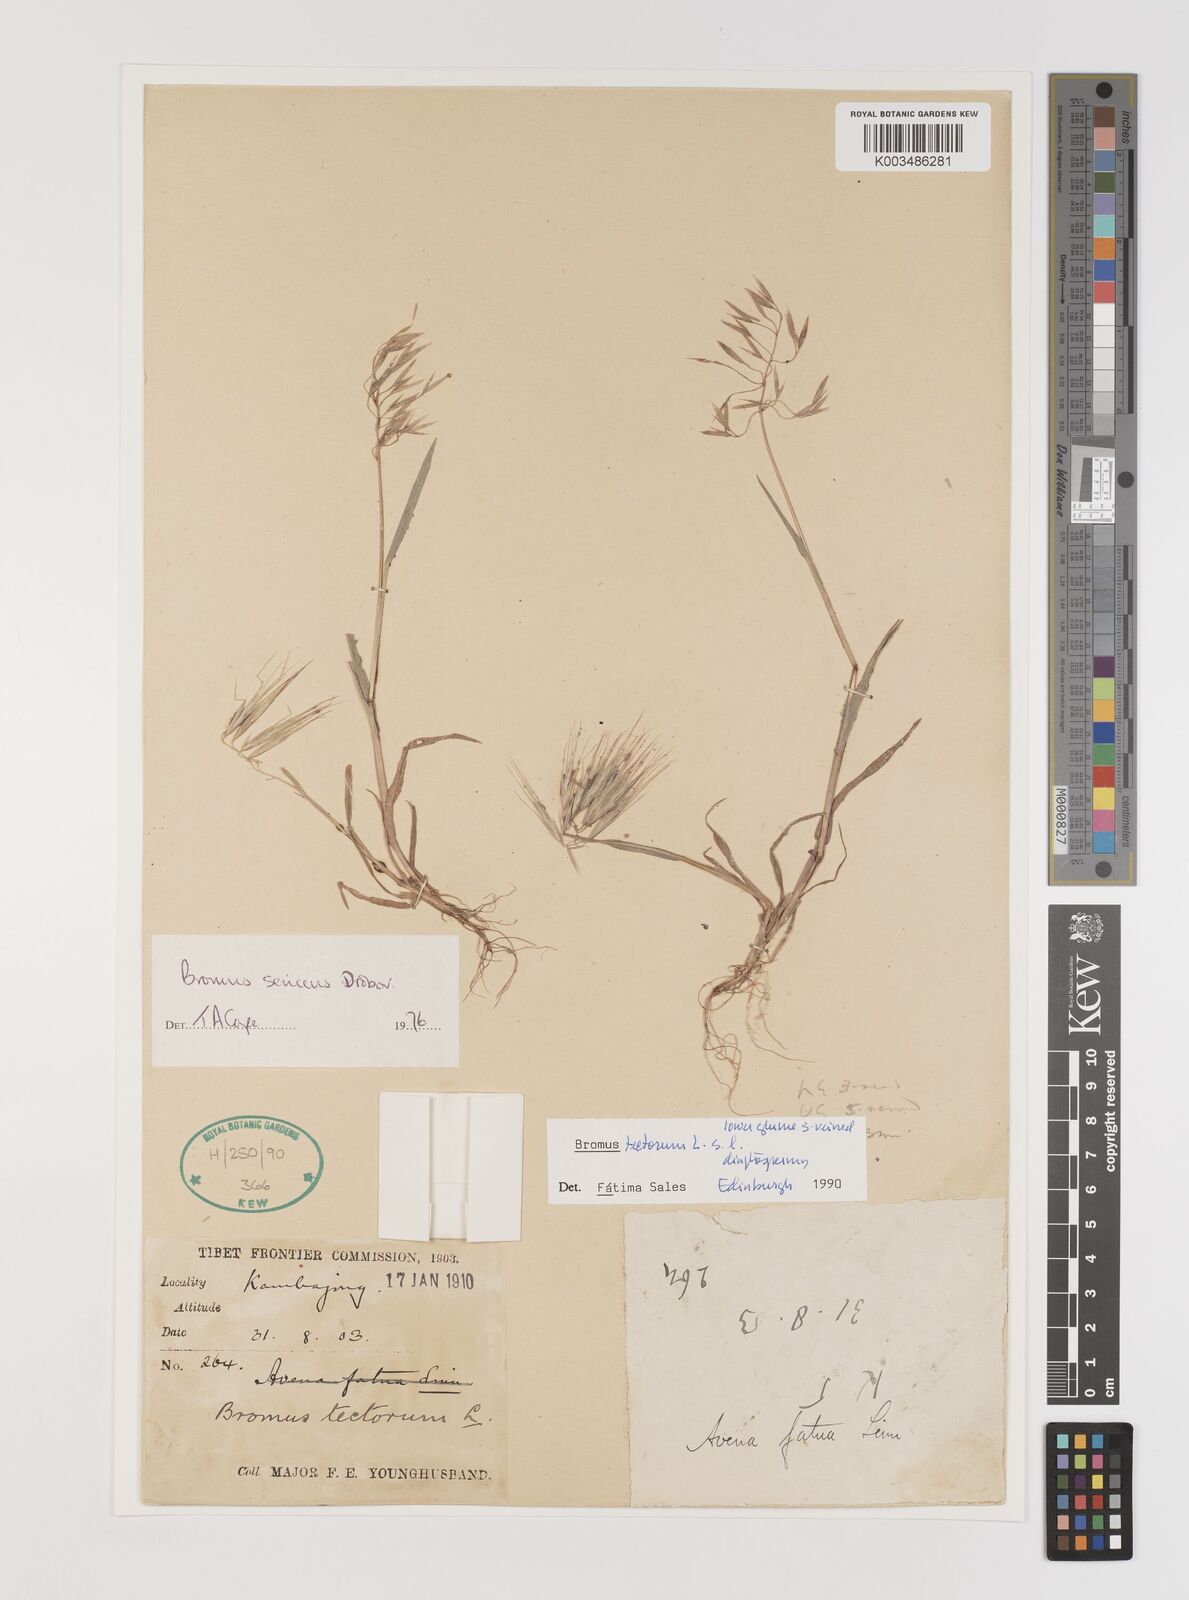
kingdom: Plantae
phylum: Tracheophyta
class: Liliopsida
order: Poales
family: Poaceae
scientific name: Poaceae
